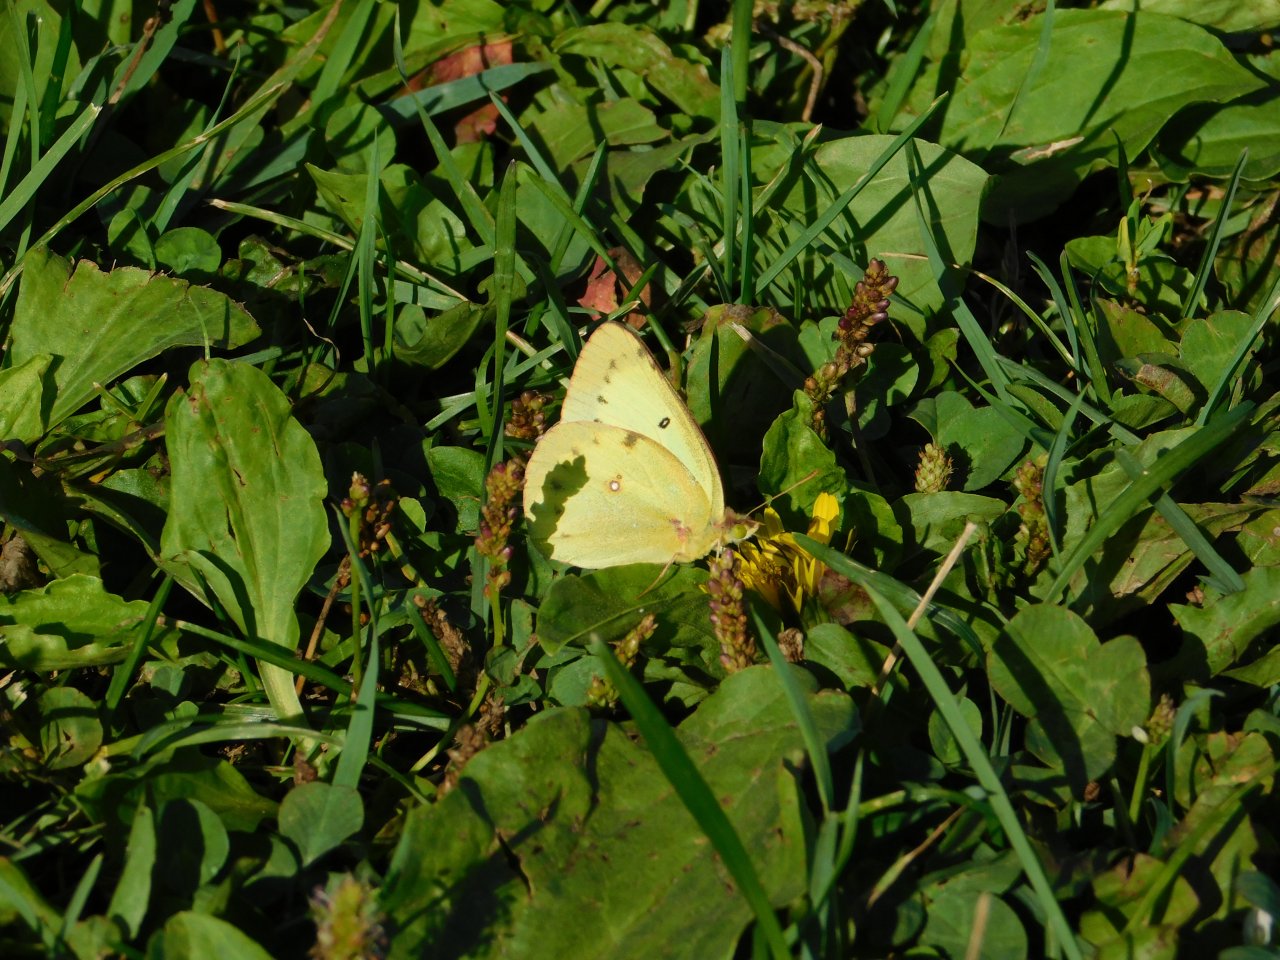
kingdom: Animalia
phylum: Arthropoda
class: Insecta
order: Lepidoptera
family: Pieridae
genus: Colias
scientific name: Colias philodice
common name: Clouded Sulphur
